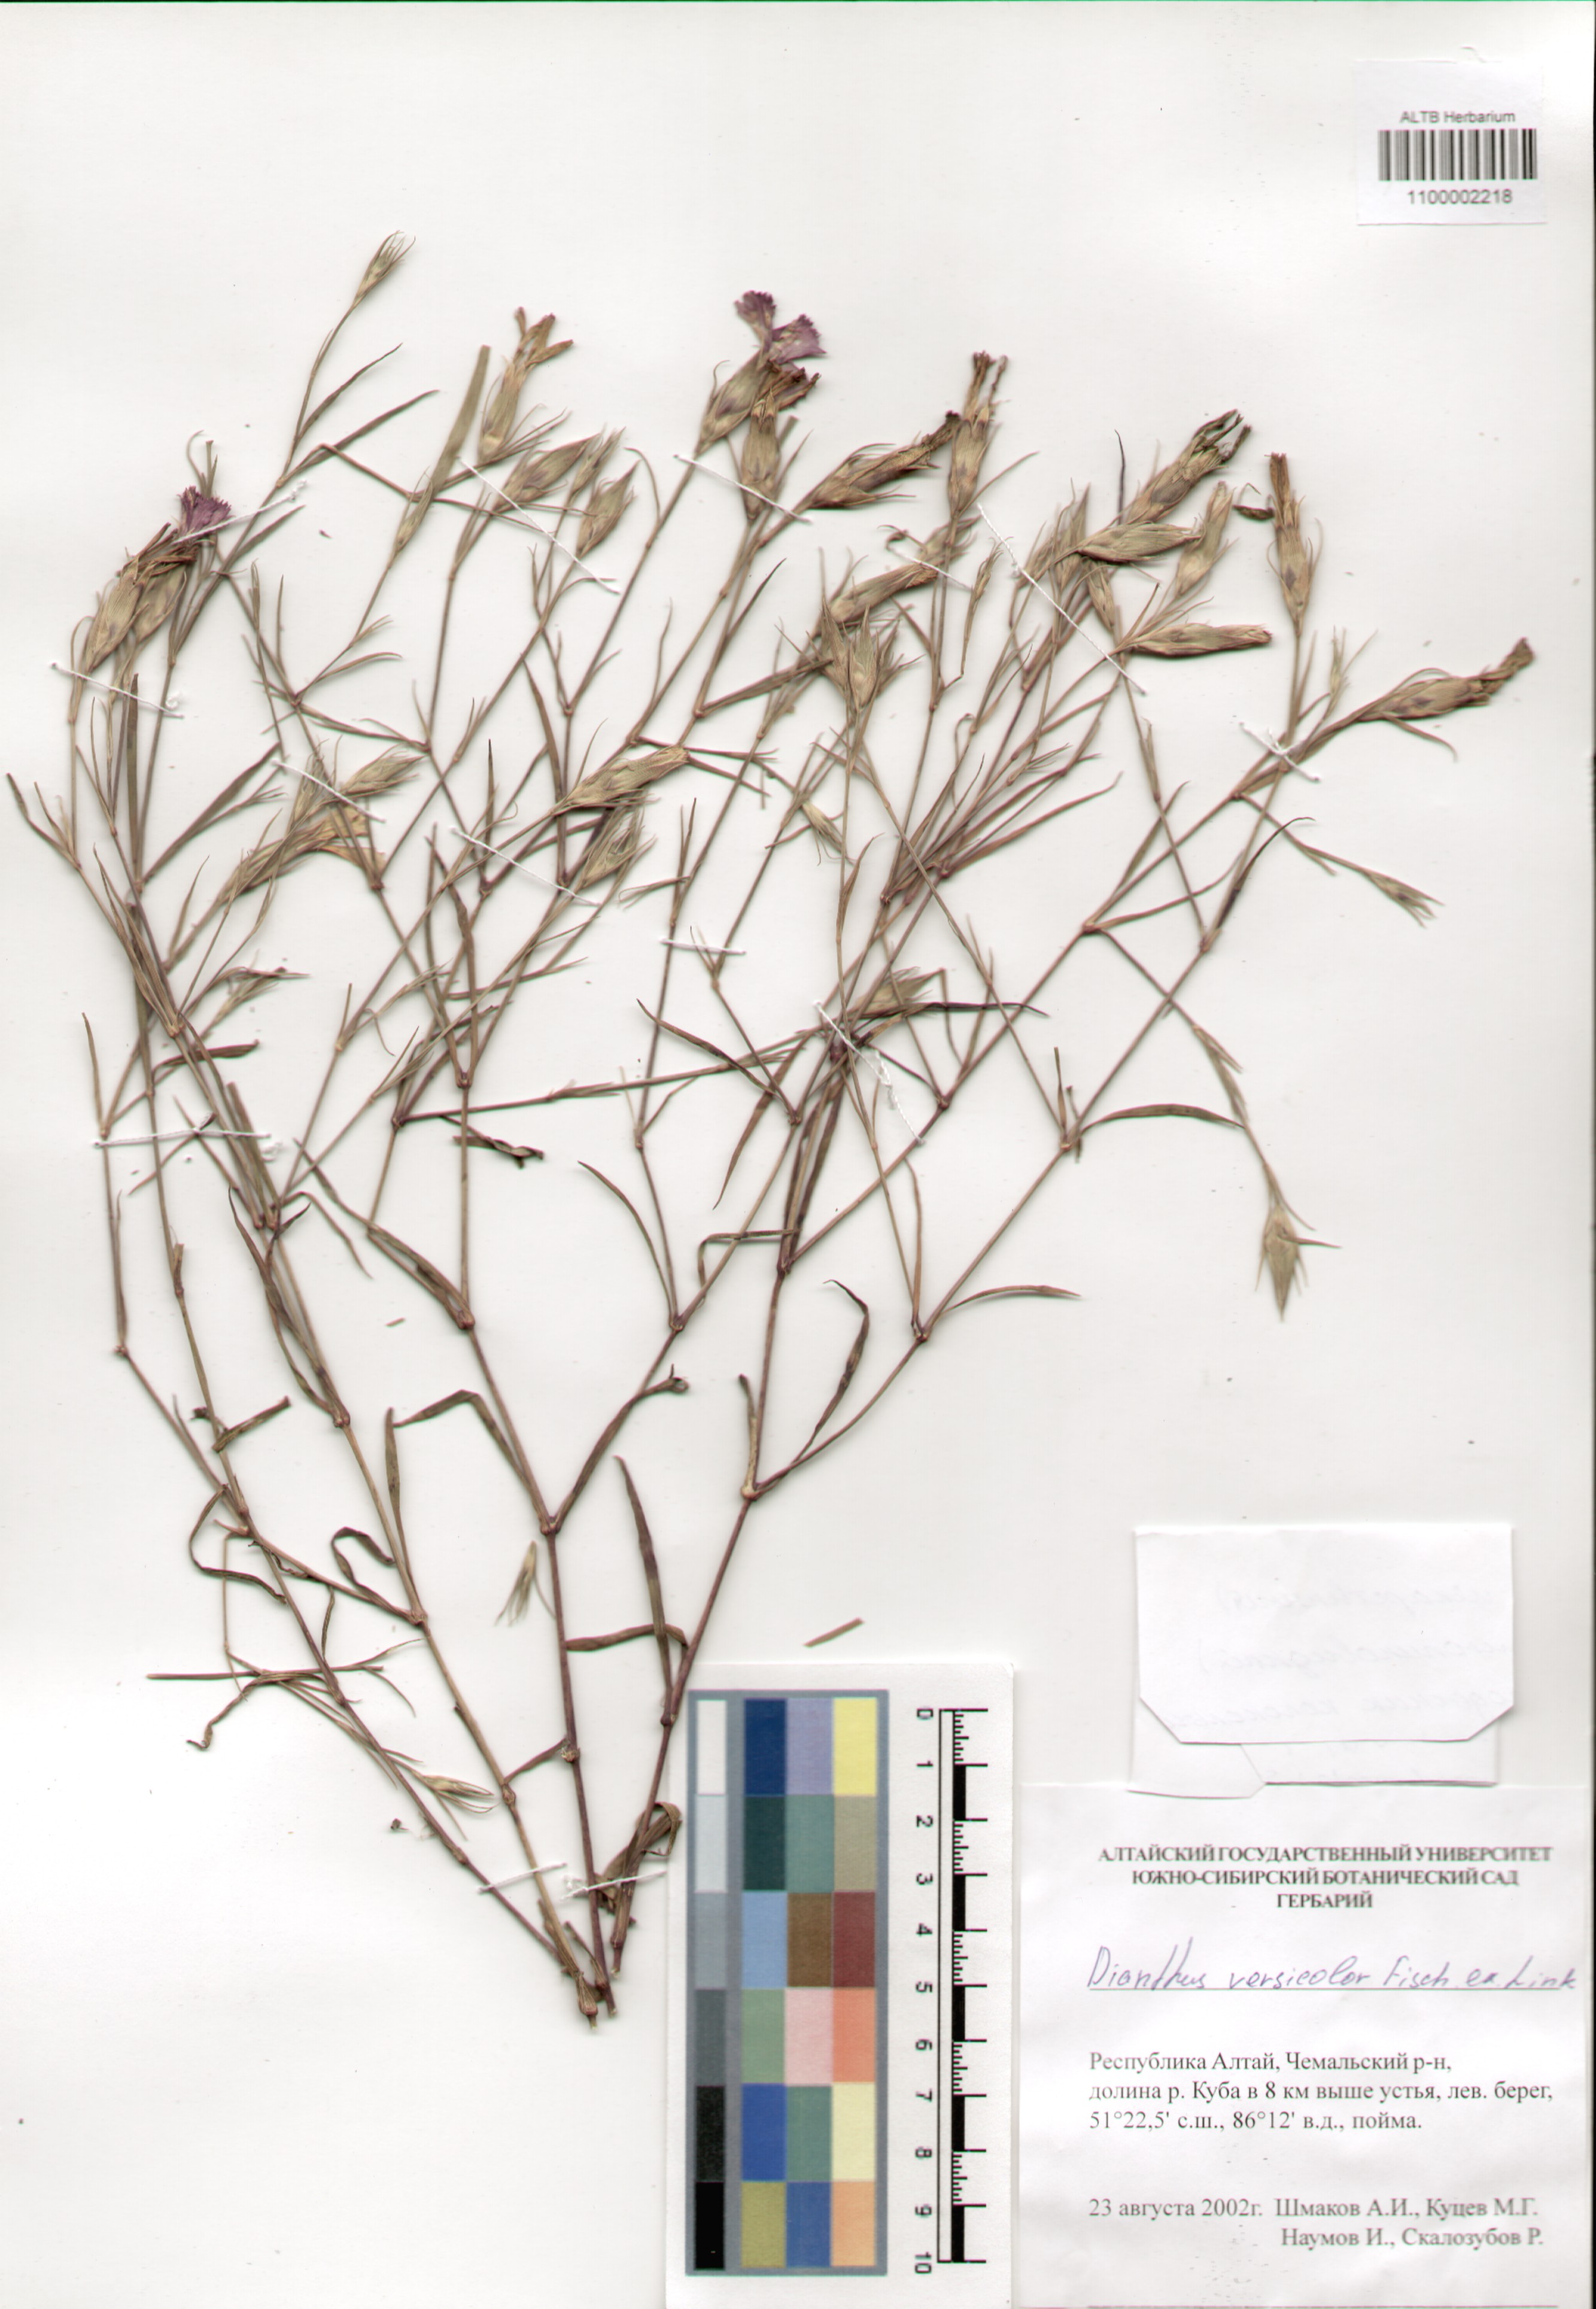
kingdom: Plantae
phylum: Tracheophyta
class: Magnoliopsida
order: Caryophyllales
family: Caryophyllaceae
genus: Dianthus
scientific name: Dianthus chinensis
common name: Rainbow pink
